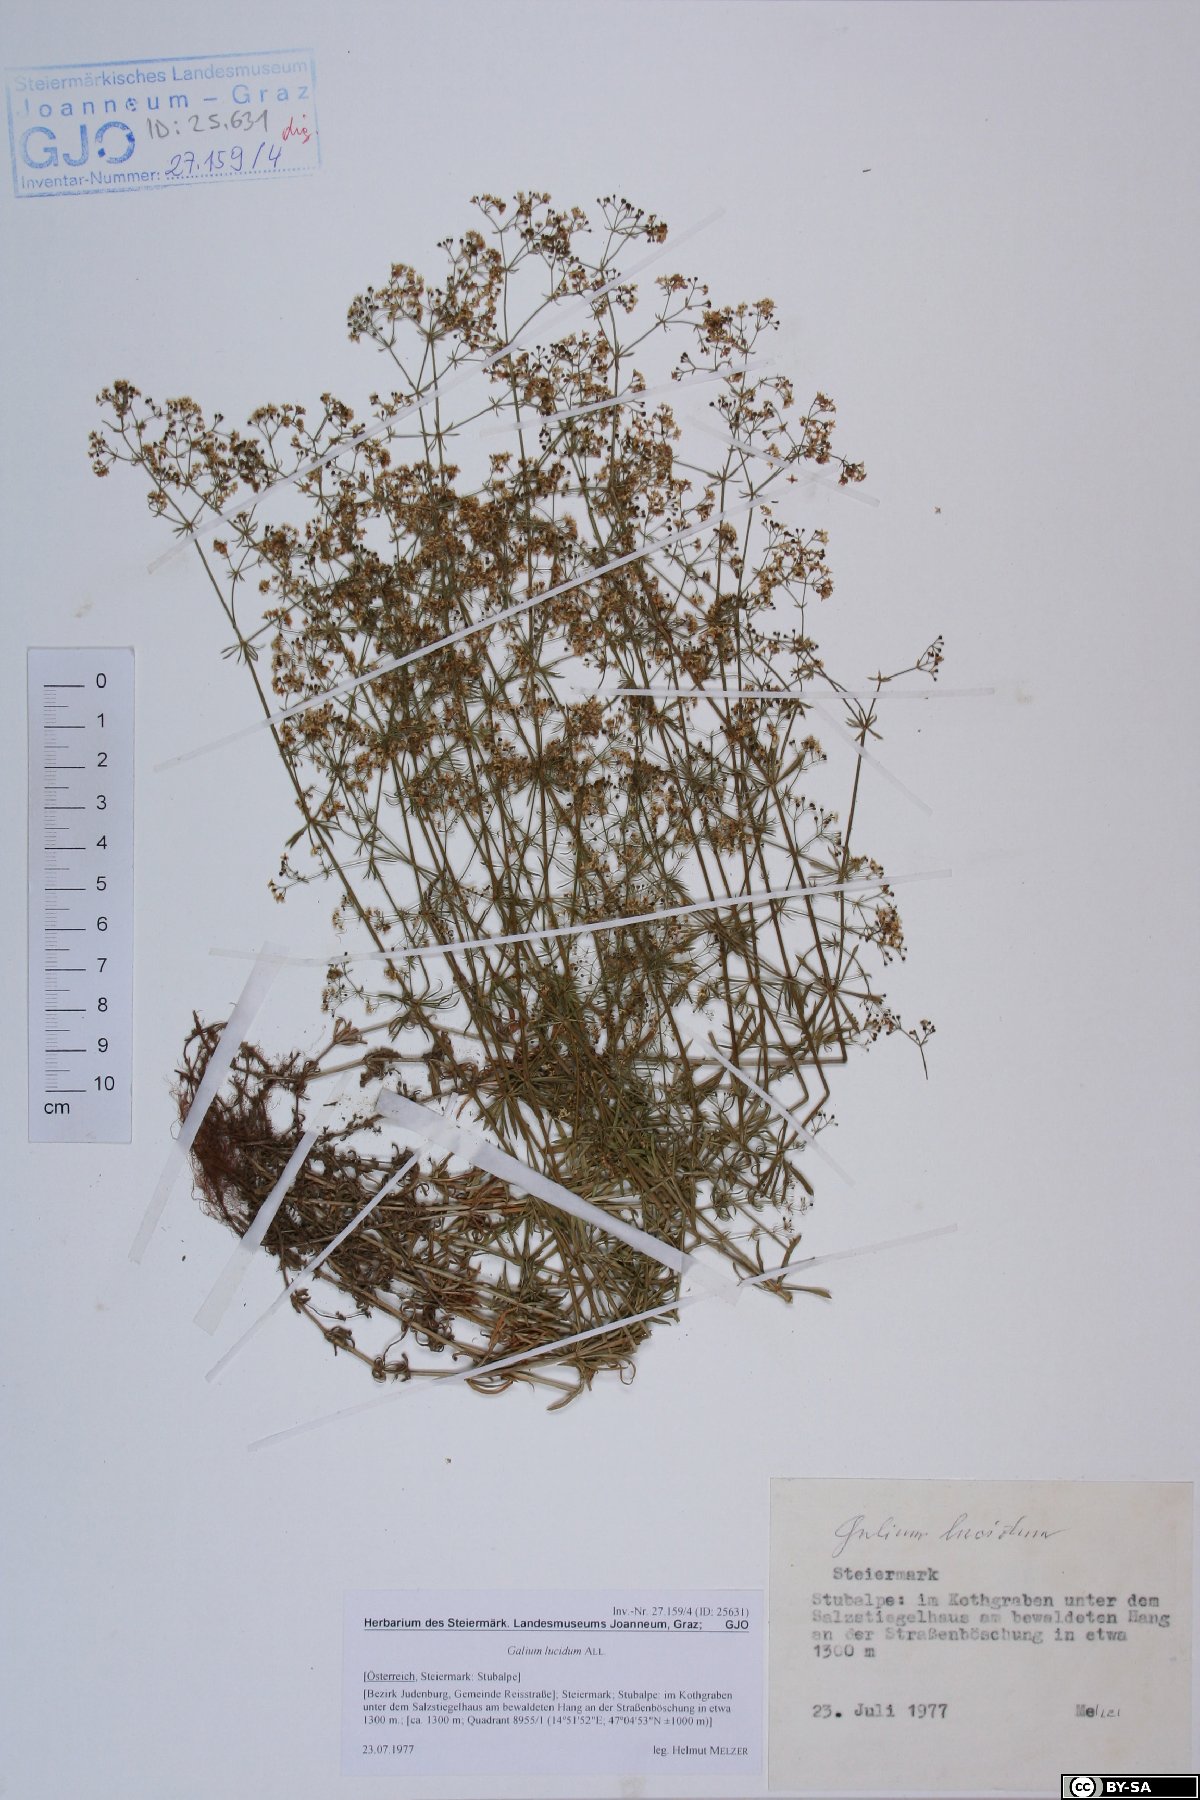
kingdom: Plantae
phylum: Tracheophyta
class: Magnoliopsida
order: Gentianales
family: Rubiaceae
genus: Galium
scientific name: Galium lucidum
